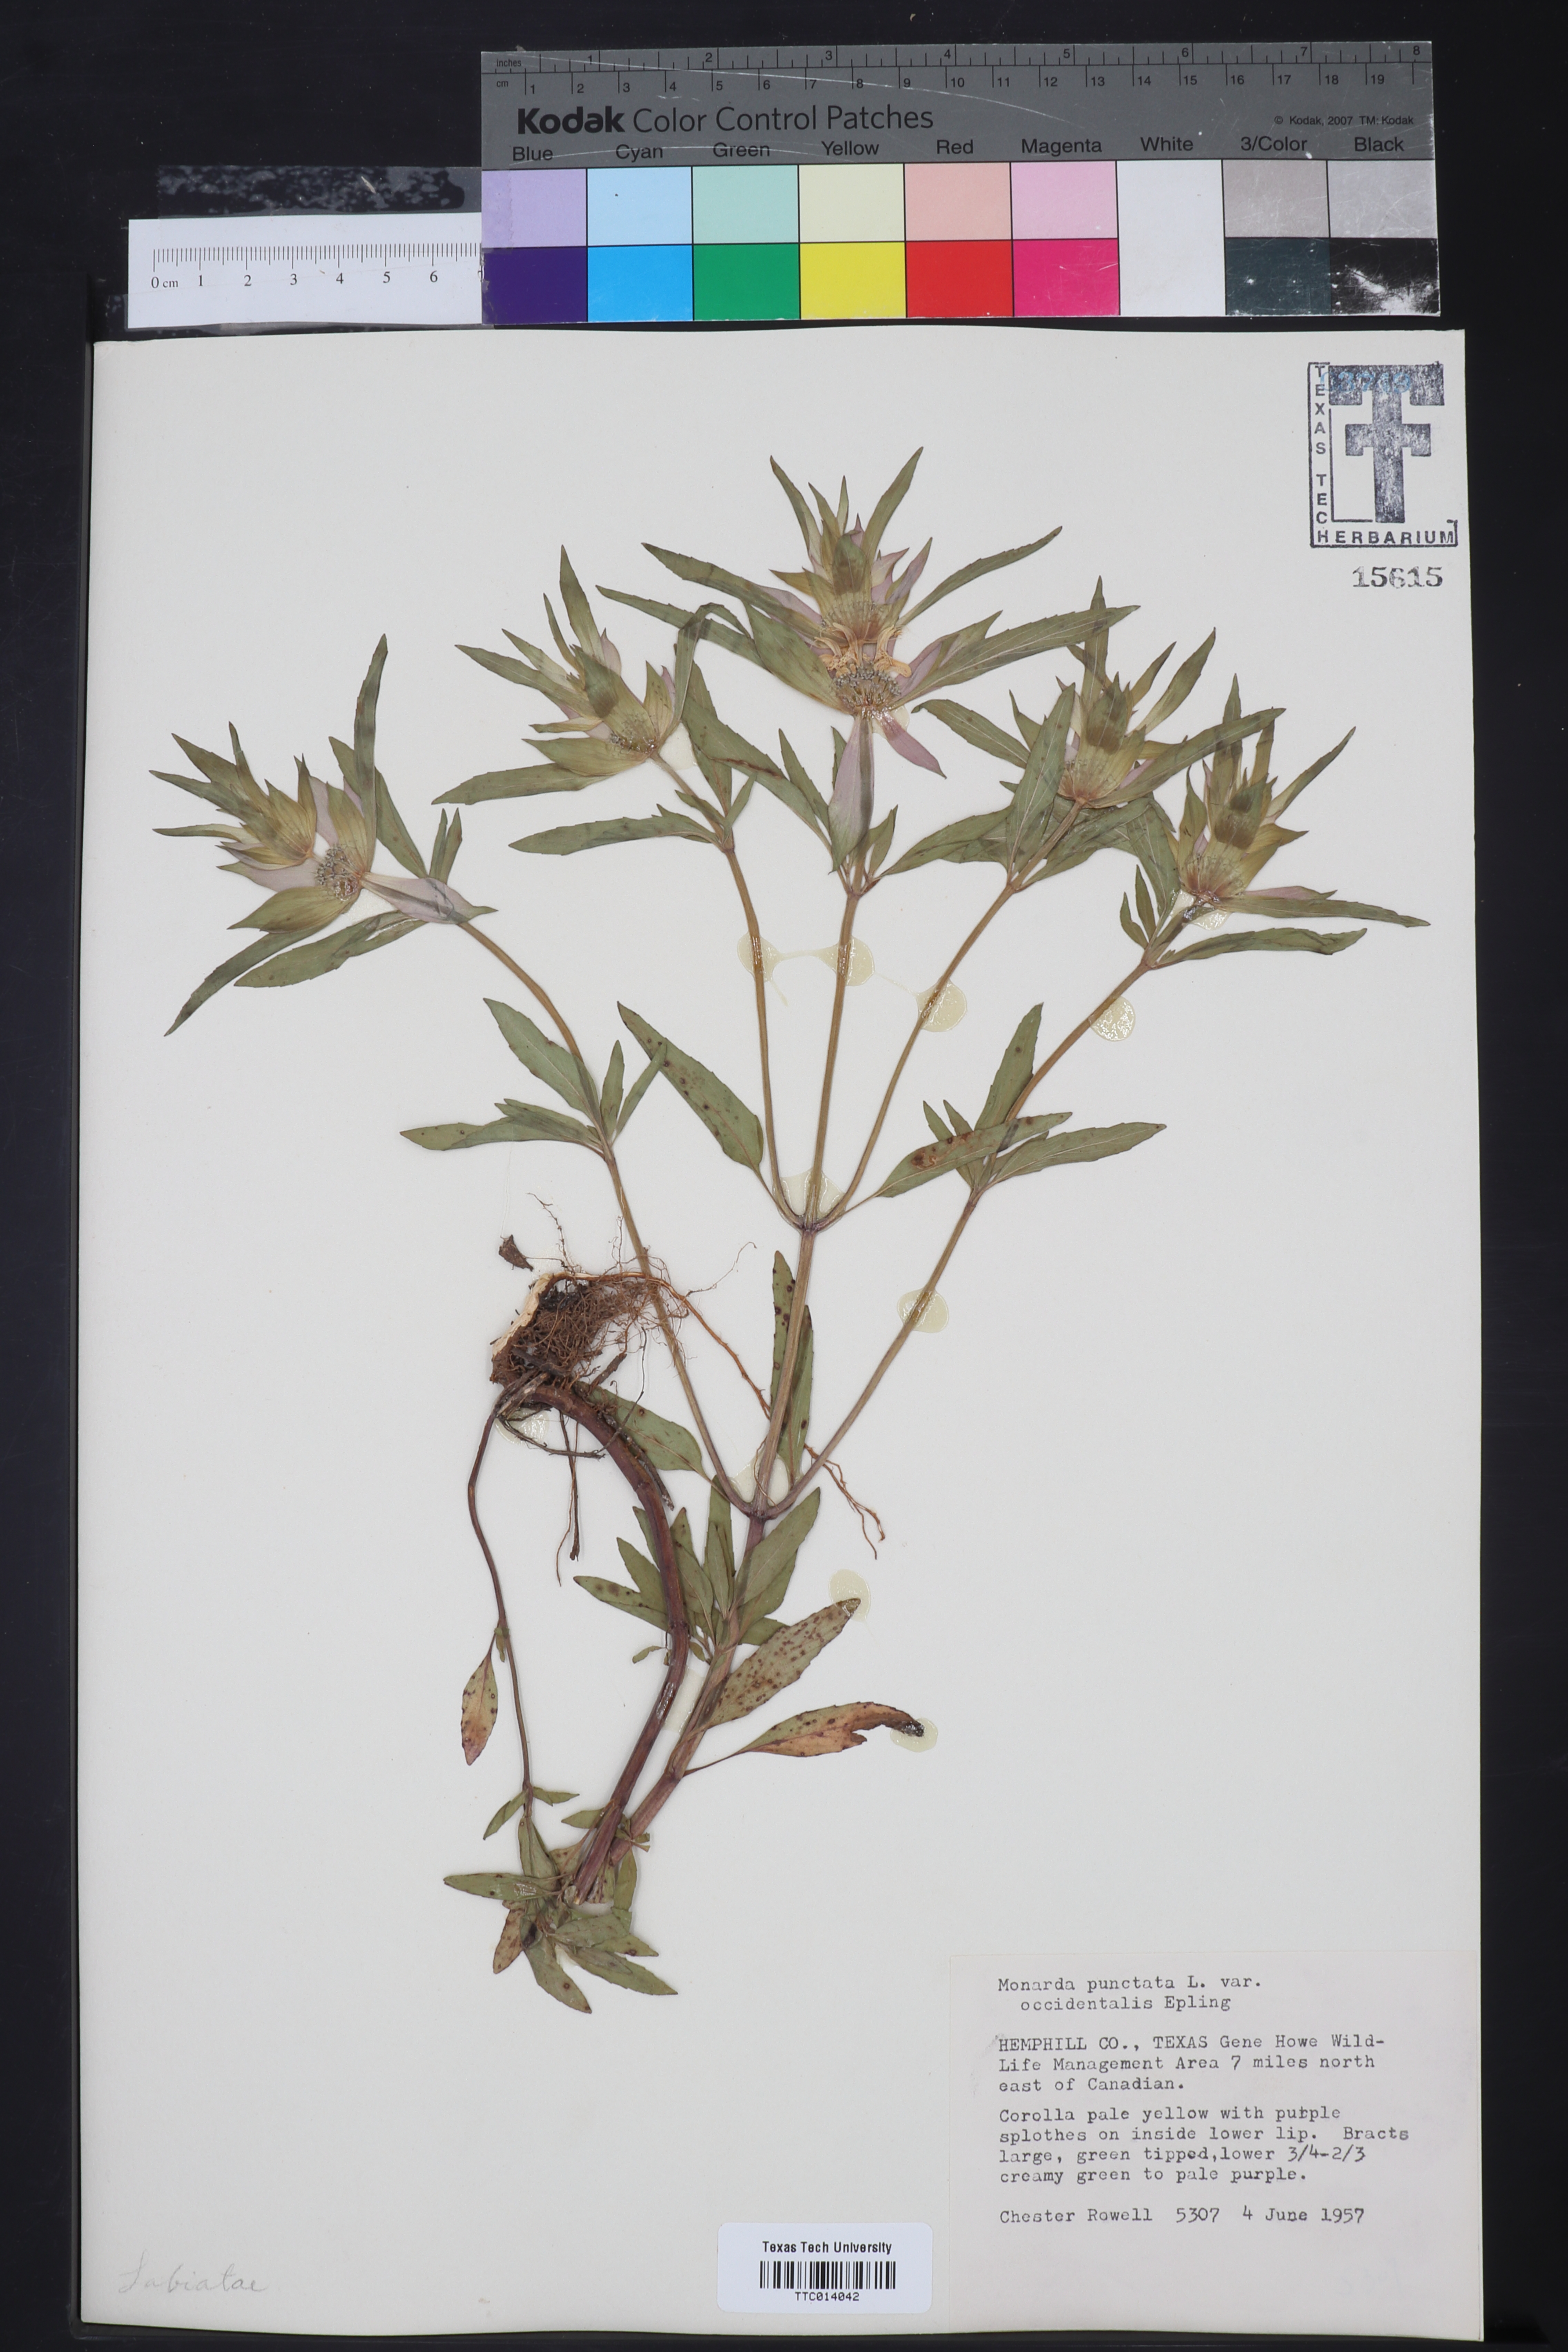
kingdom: Plantae
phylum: Tracheophyta
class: Magnoliopsida
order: Lamiales
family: Lamiaceae
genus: Monarda
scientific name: Monarda punctata
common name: Dotted monarda
